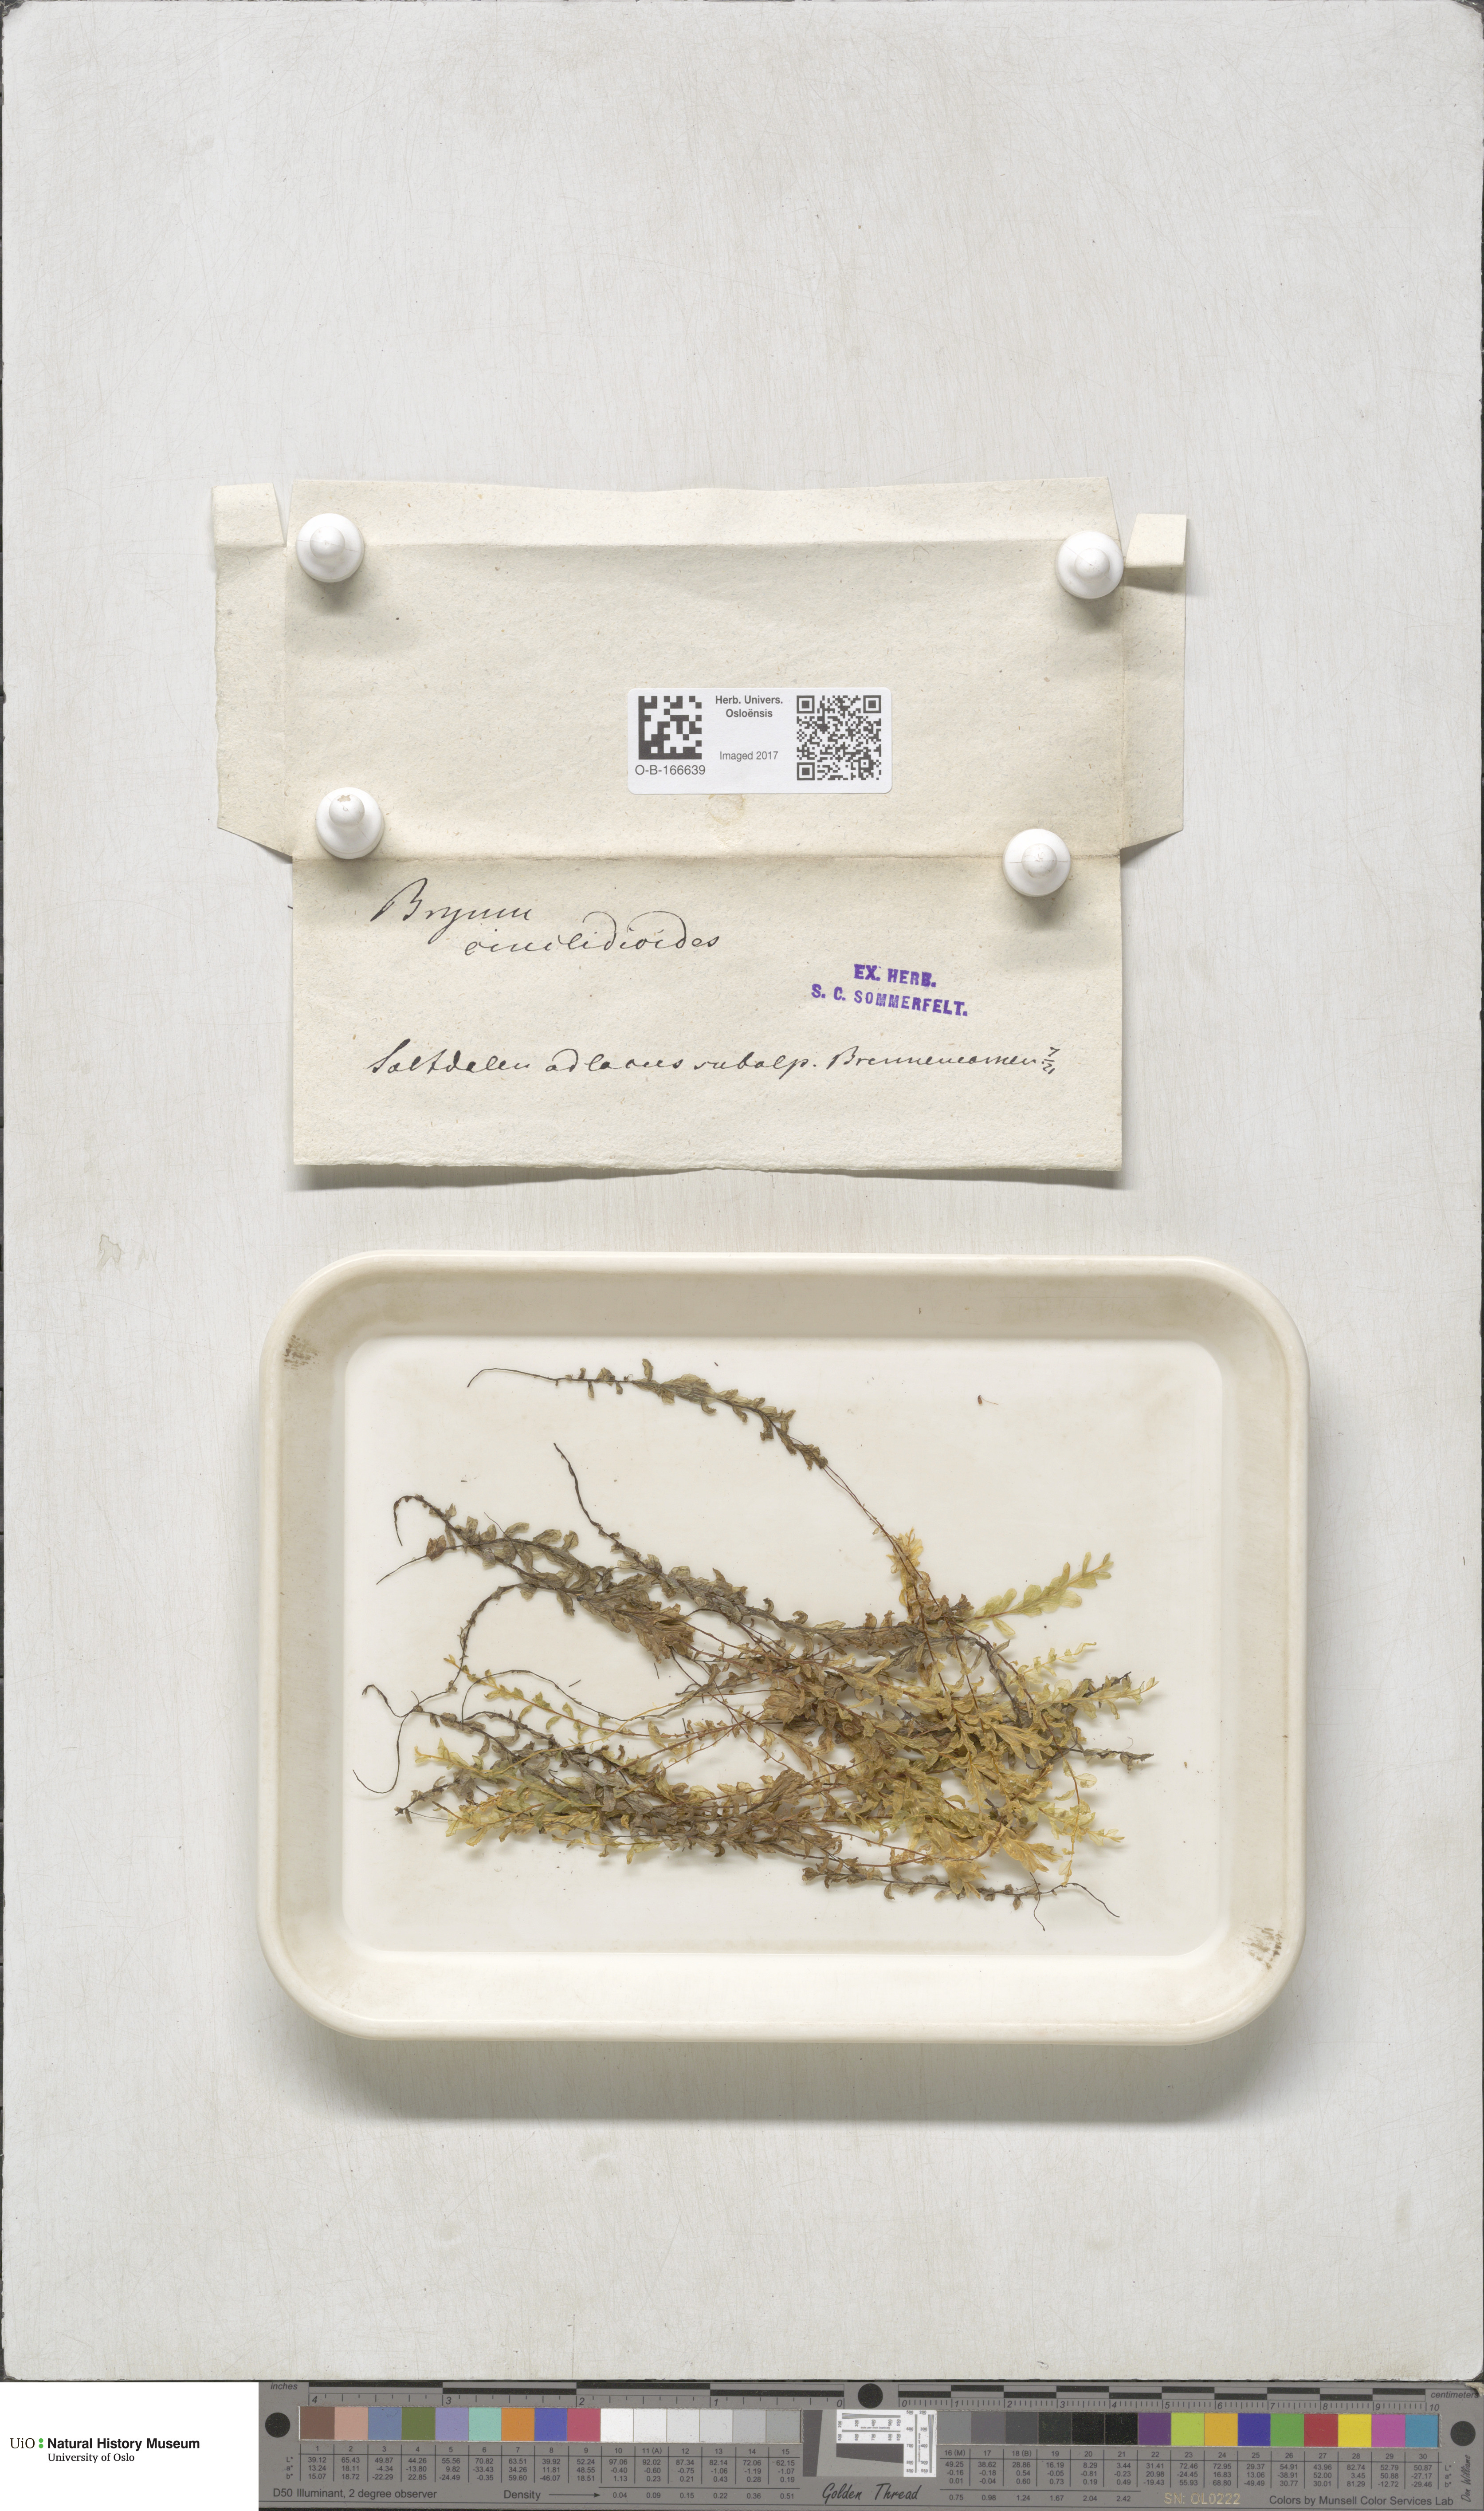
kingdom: Plantae
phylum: Bryophyta
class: Bryopsida
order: Bryales
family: Mniaceae
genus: Pseudobryum
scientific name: Pseudobryum cinclidioides
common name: River thyme moss
